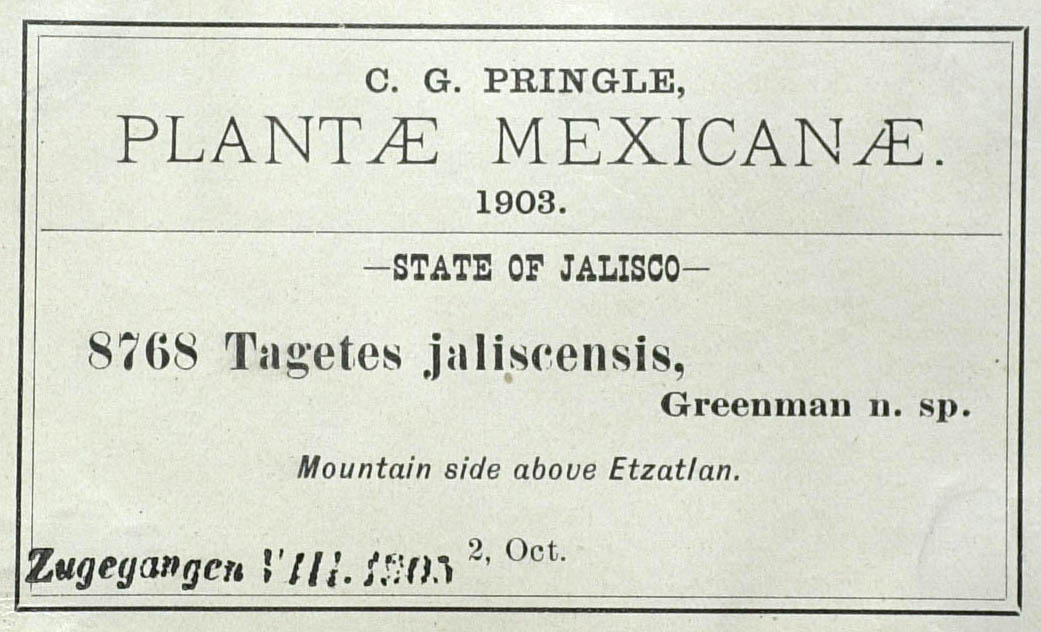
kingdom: Plantae
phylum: Tracheophyta
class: Magnoliopsida
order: Asterales
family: Asteraceae
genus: Tagetes
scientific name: Tagetes triradiata
